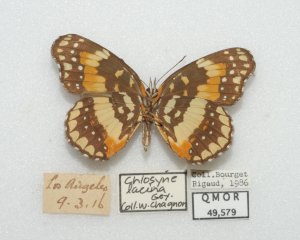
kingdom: Animalia
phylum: Arthropoda
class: Insecta
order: Lepidoptera
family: Nymphalidae
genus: Chlosyne
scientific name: Chlosyne lacinia
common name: Bordered Patch
